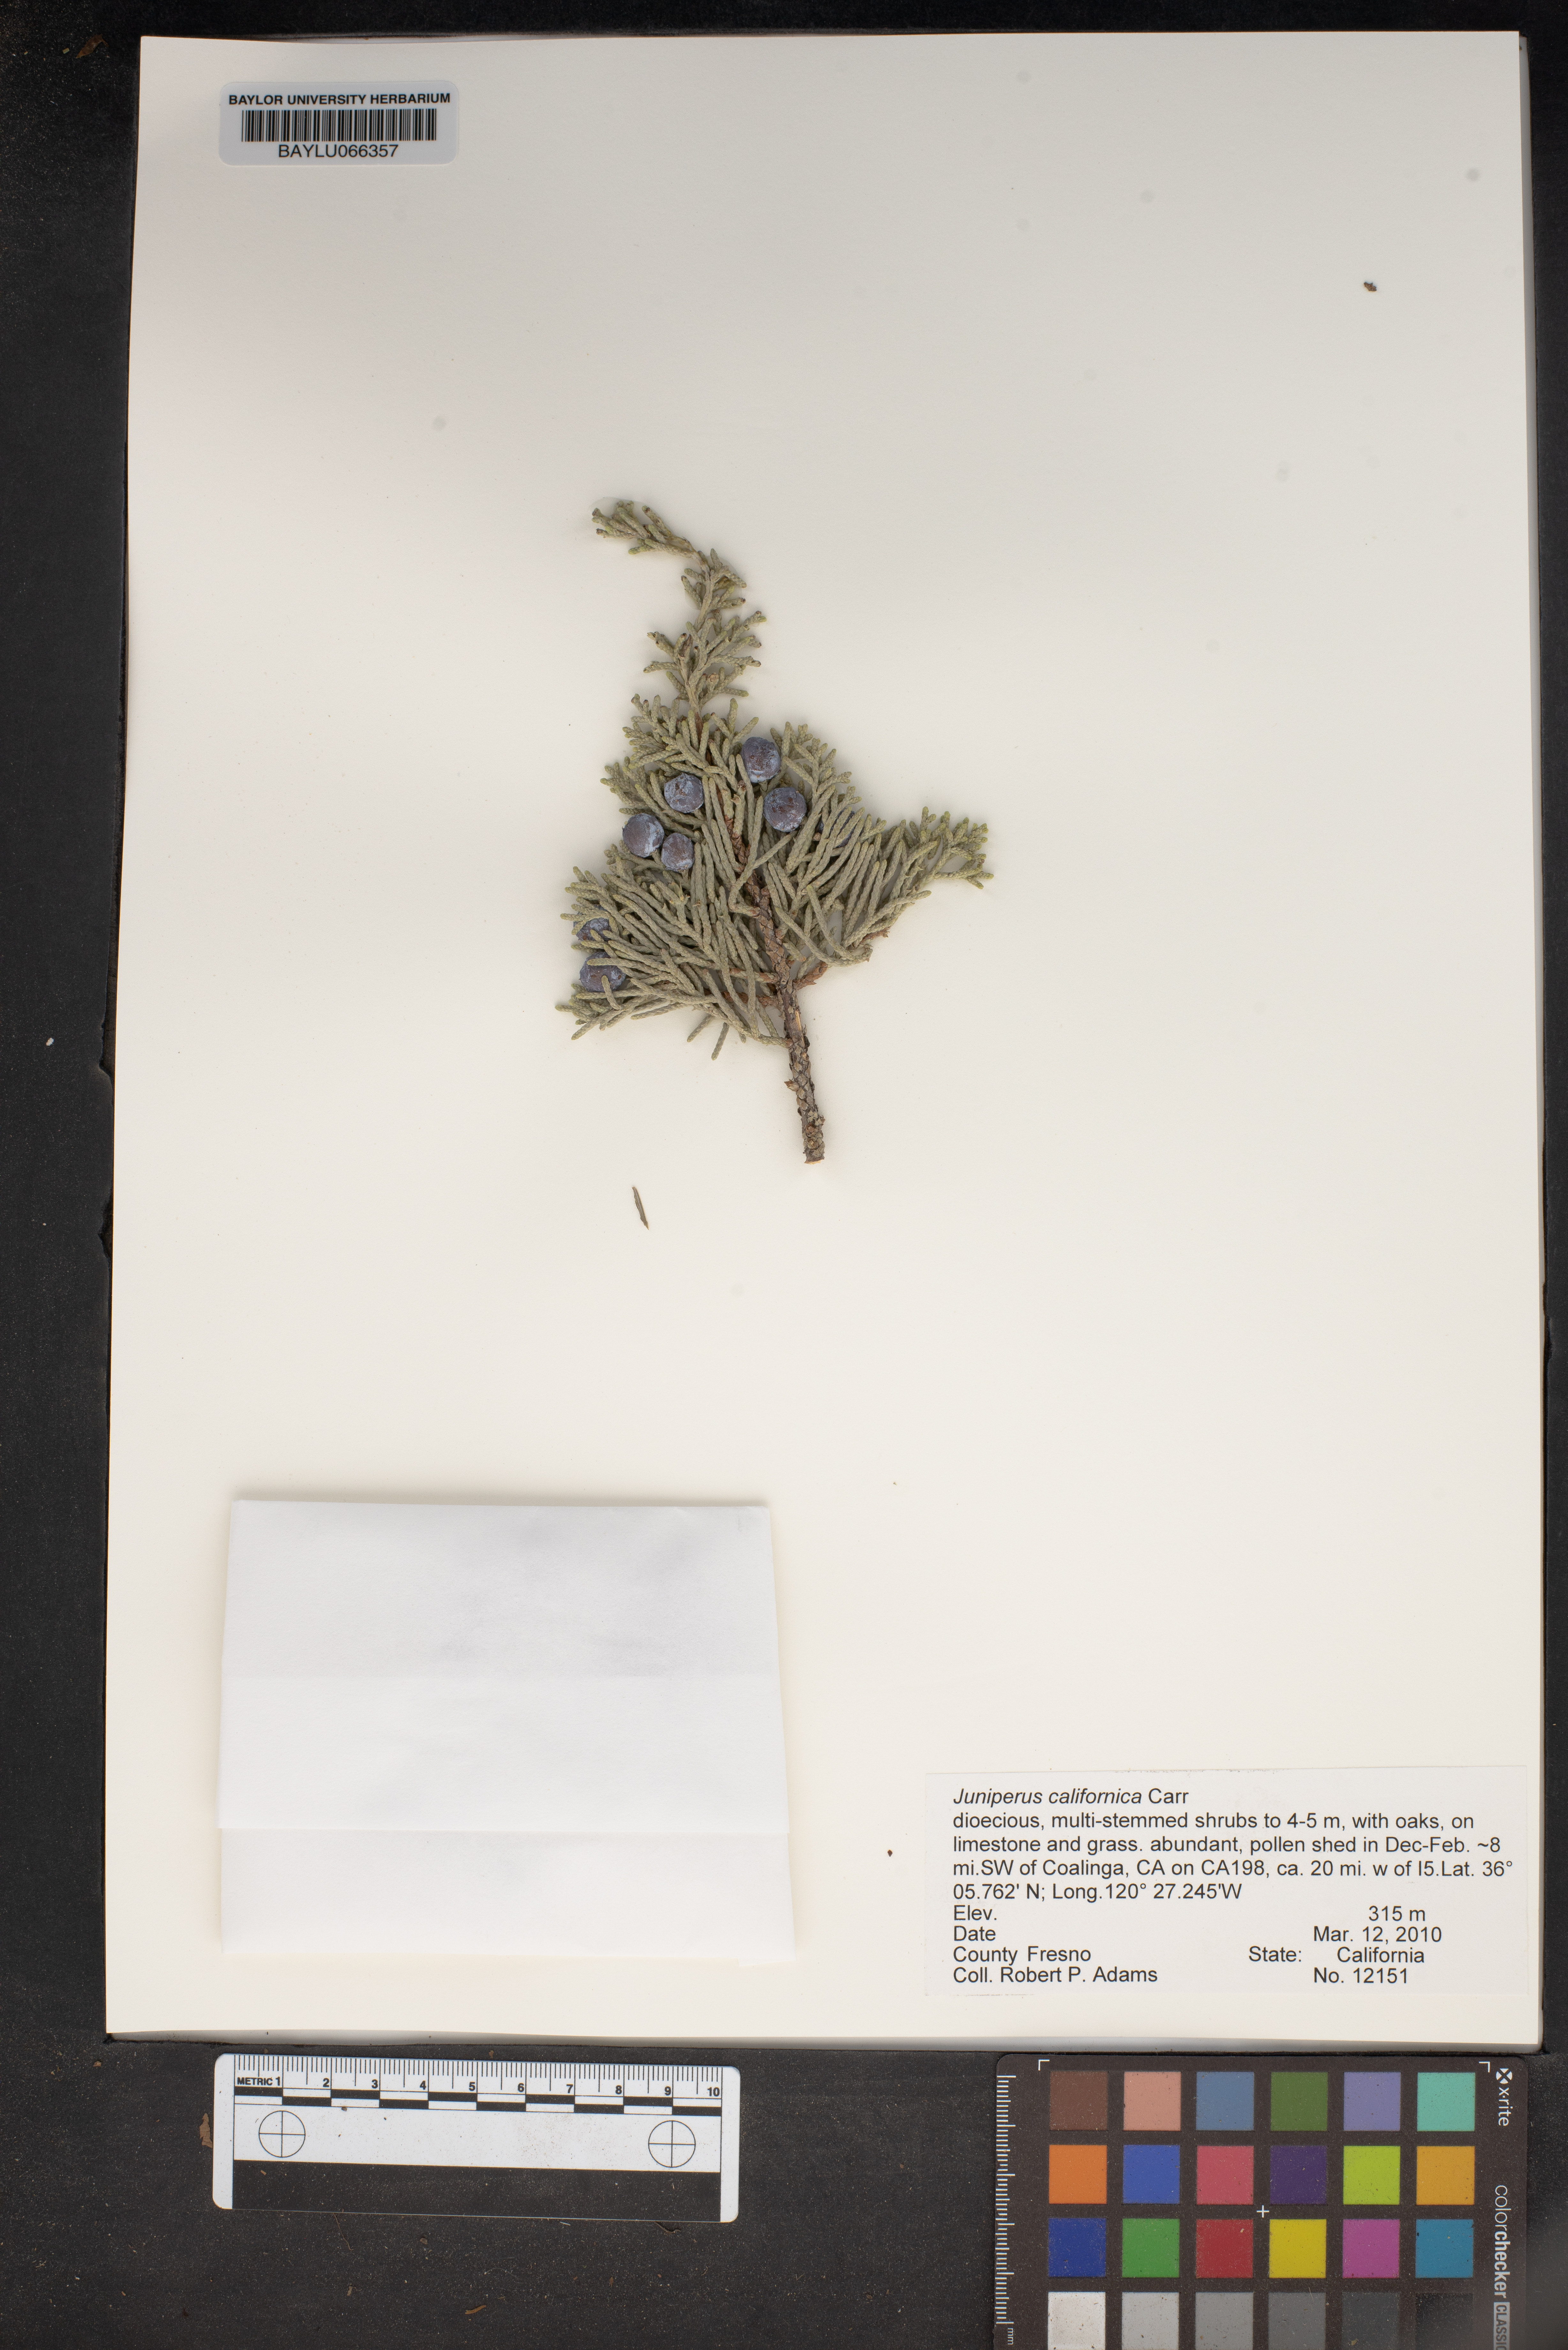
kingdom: Plantae
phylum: Tracheophyta
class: Pinopsida
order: Pinales
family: Cupressaceae
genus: Juniperus
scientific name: Juniperus californica
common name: California juniper
